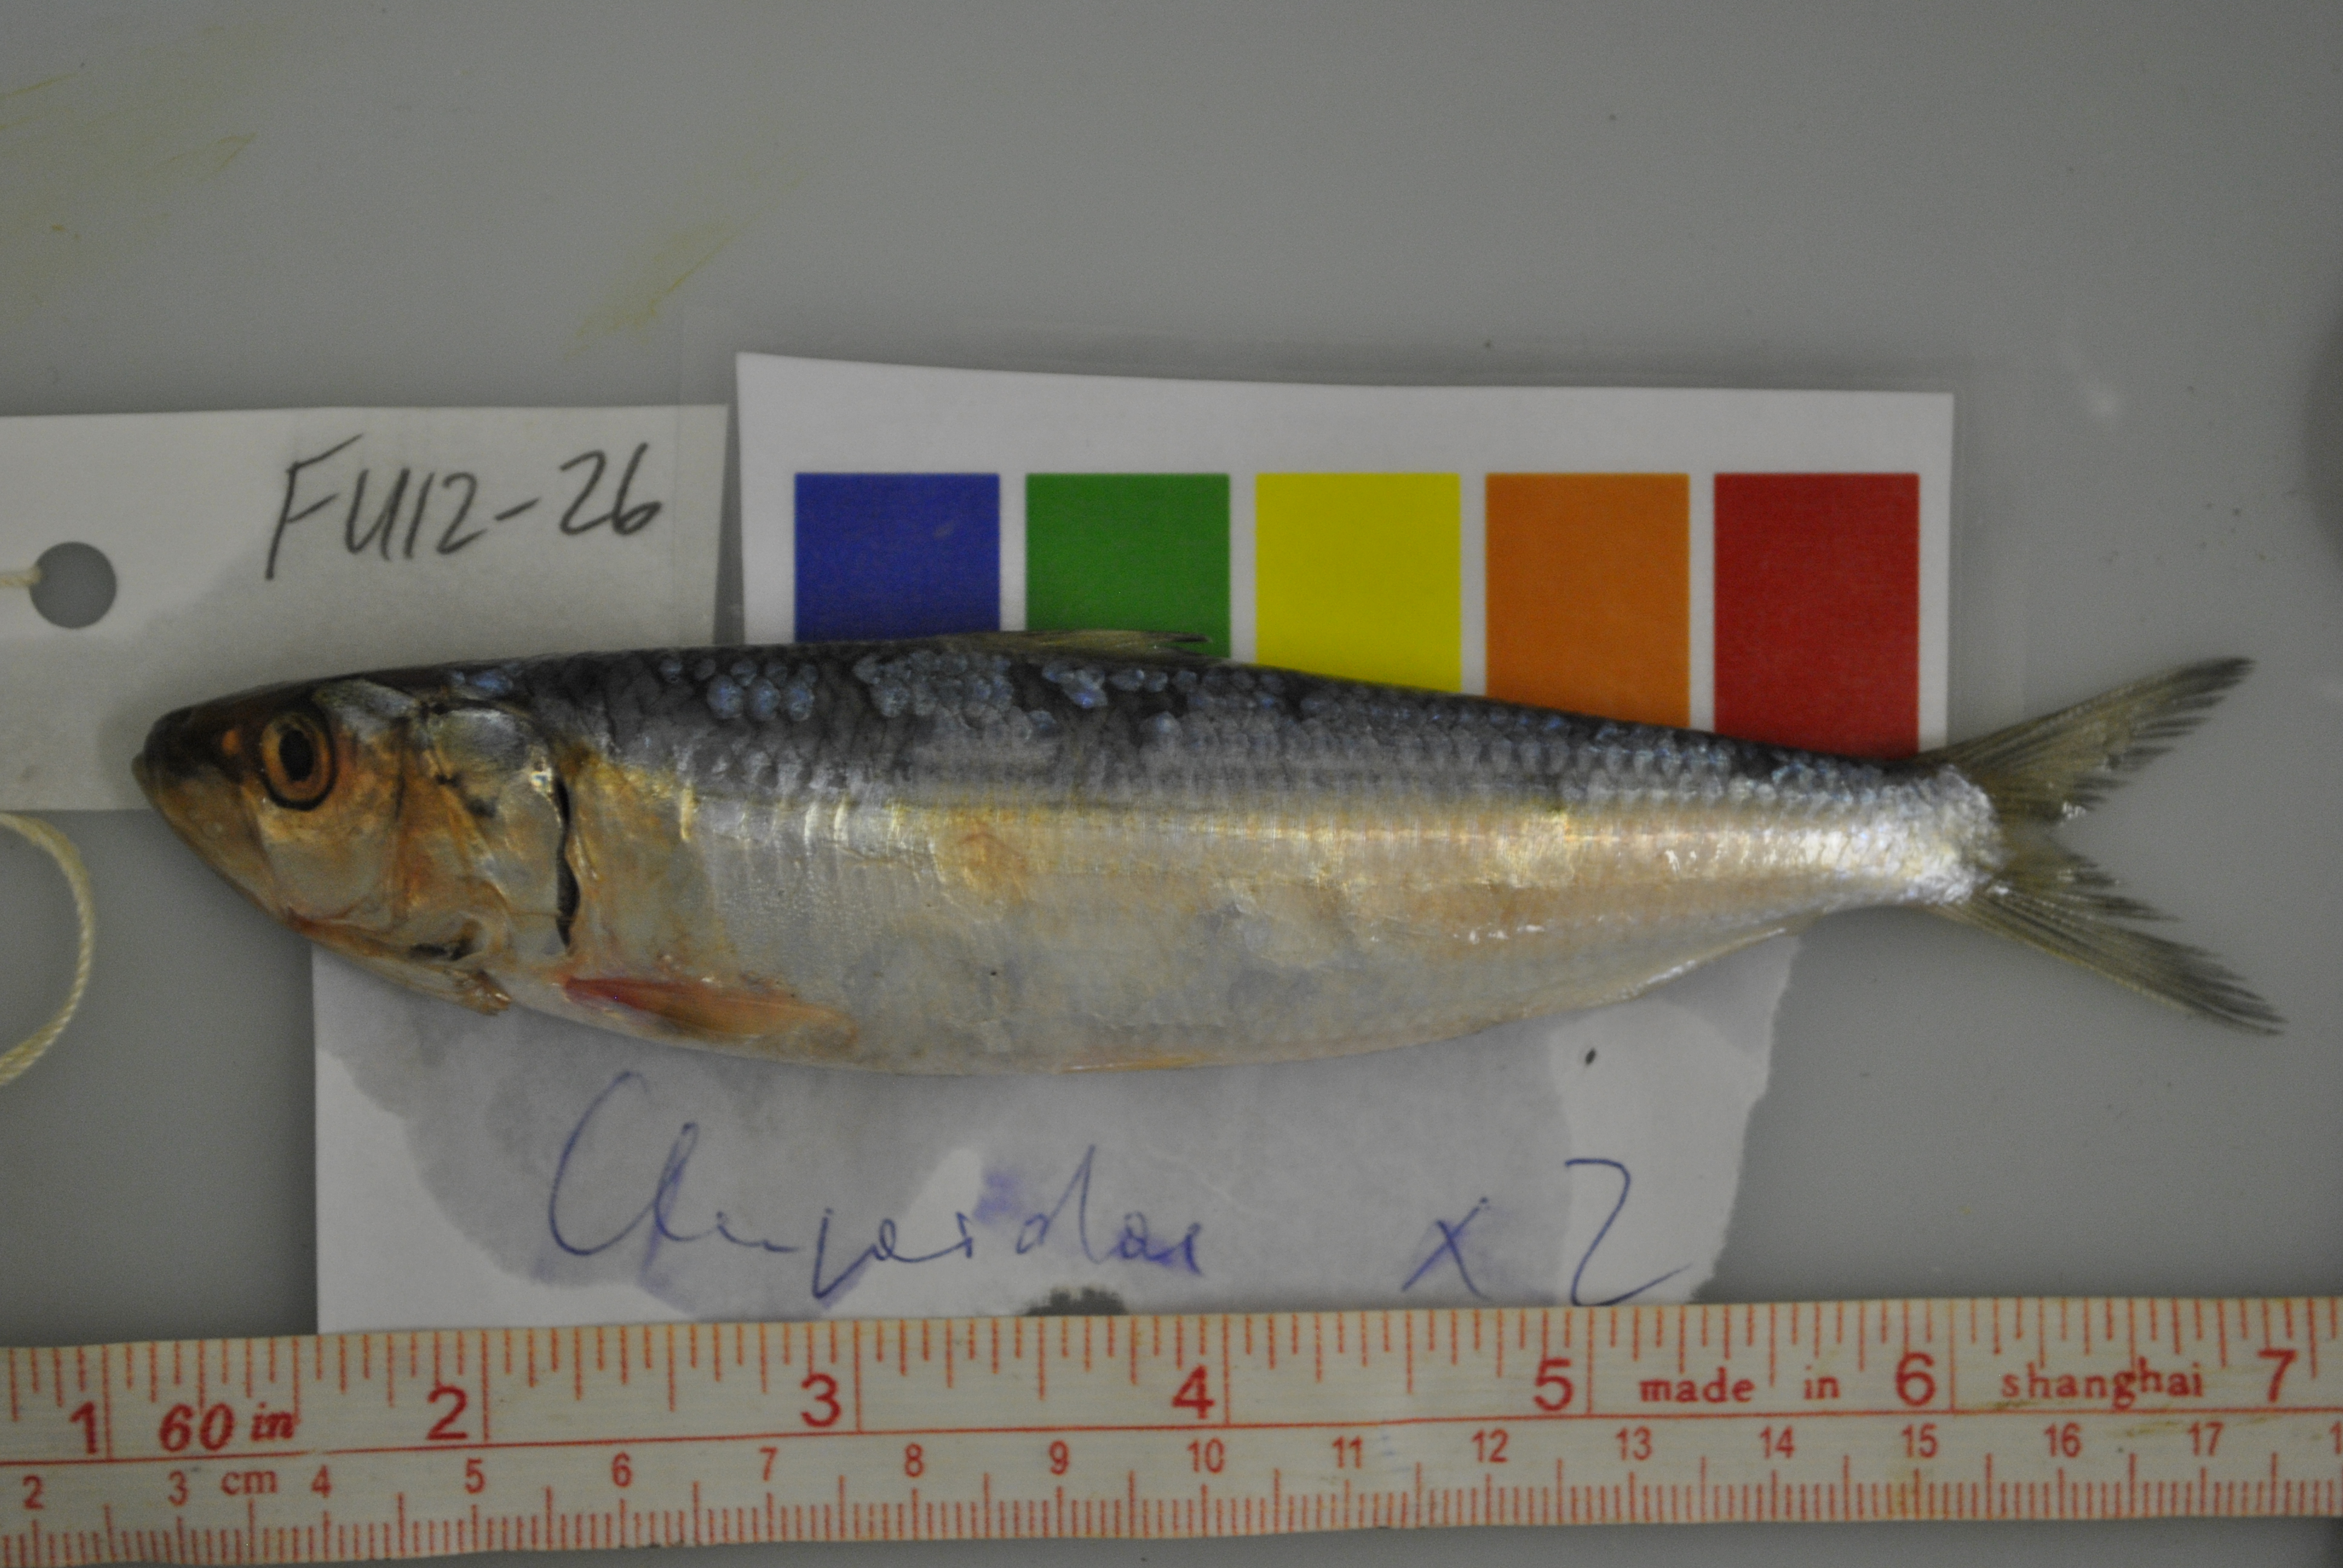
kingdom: Animalia
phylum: Chordata
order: Clupeiformes
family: Clupeidae
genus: Sardinella
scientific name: Sardinella longiceps
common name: Indian oil sardine
